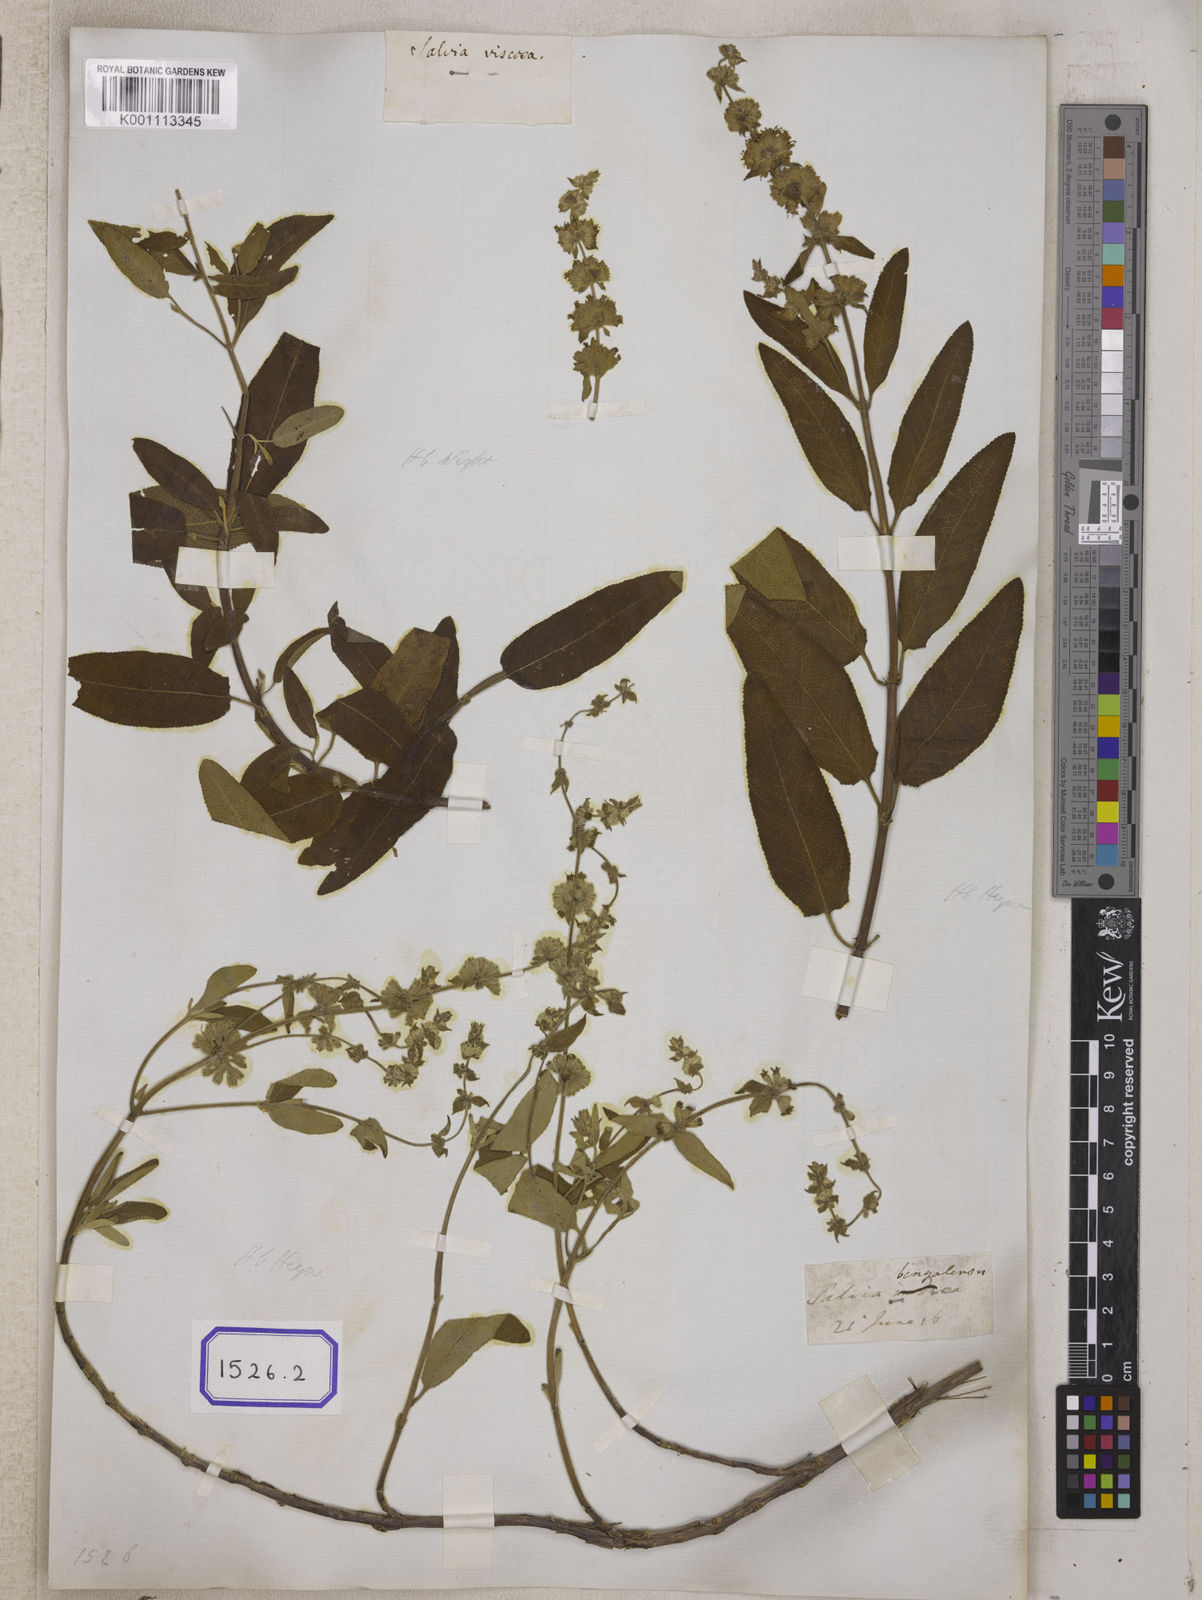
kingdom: Plantae
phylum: Tracheophyta
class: Magnoliopsida
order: Lamiales
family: Lamiaceae
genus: Salvia
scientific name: Salvia dianthera
